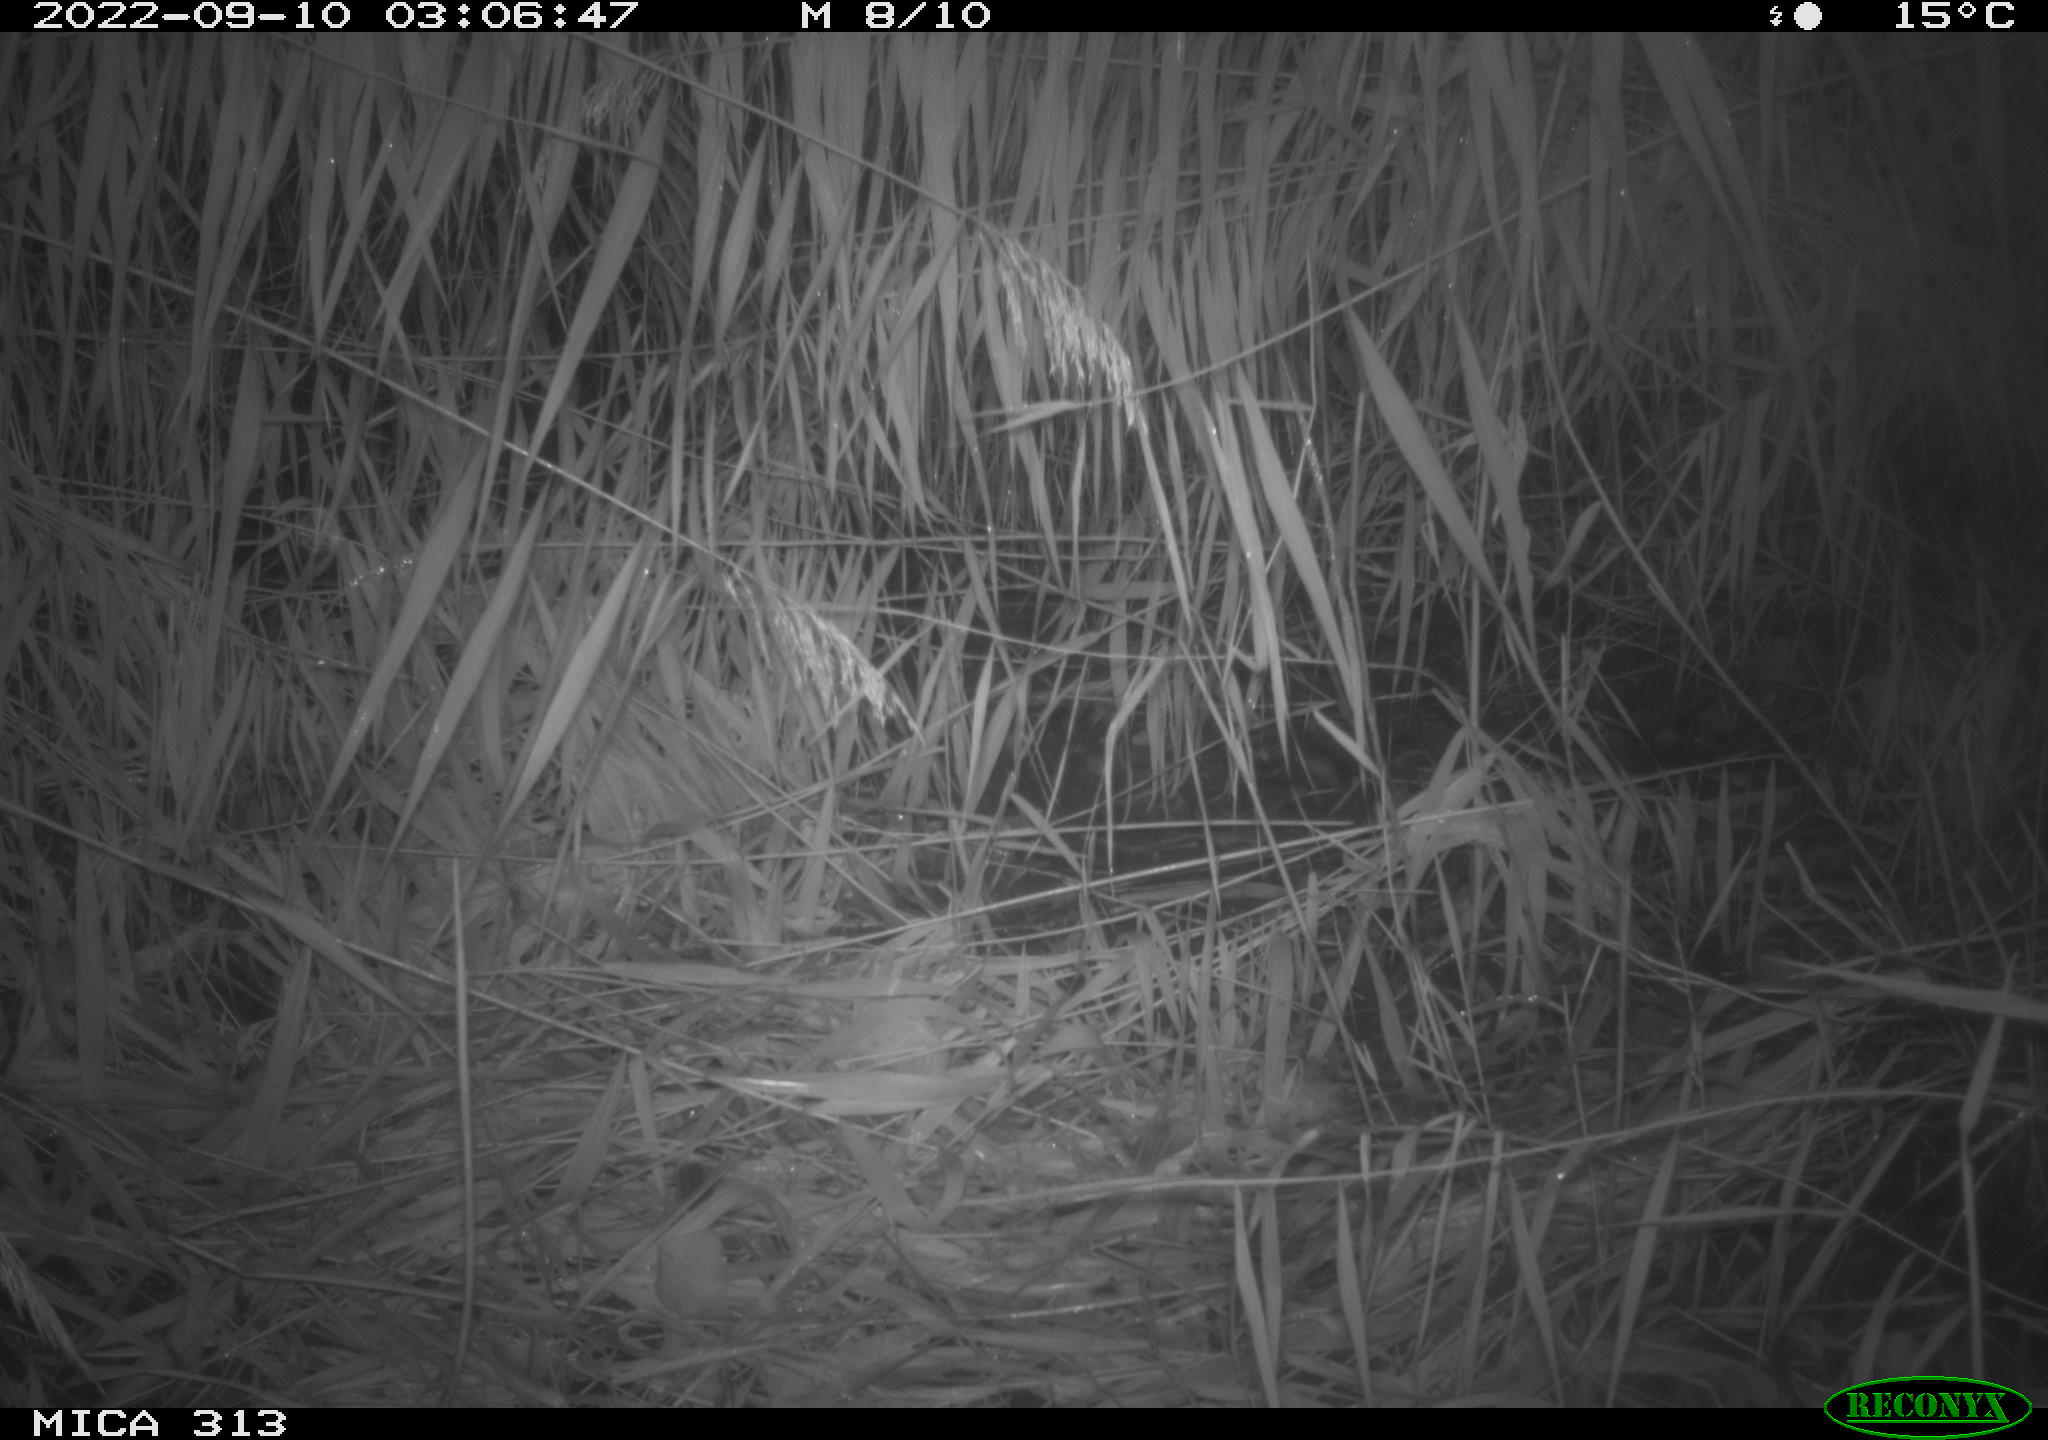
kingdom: Animalia
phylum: Chordata
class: Mammalia
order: Rodentia
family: Muridae
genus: Rattus
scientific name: Rattus norvegicus
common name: Brown rat
